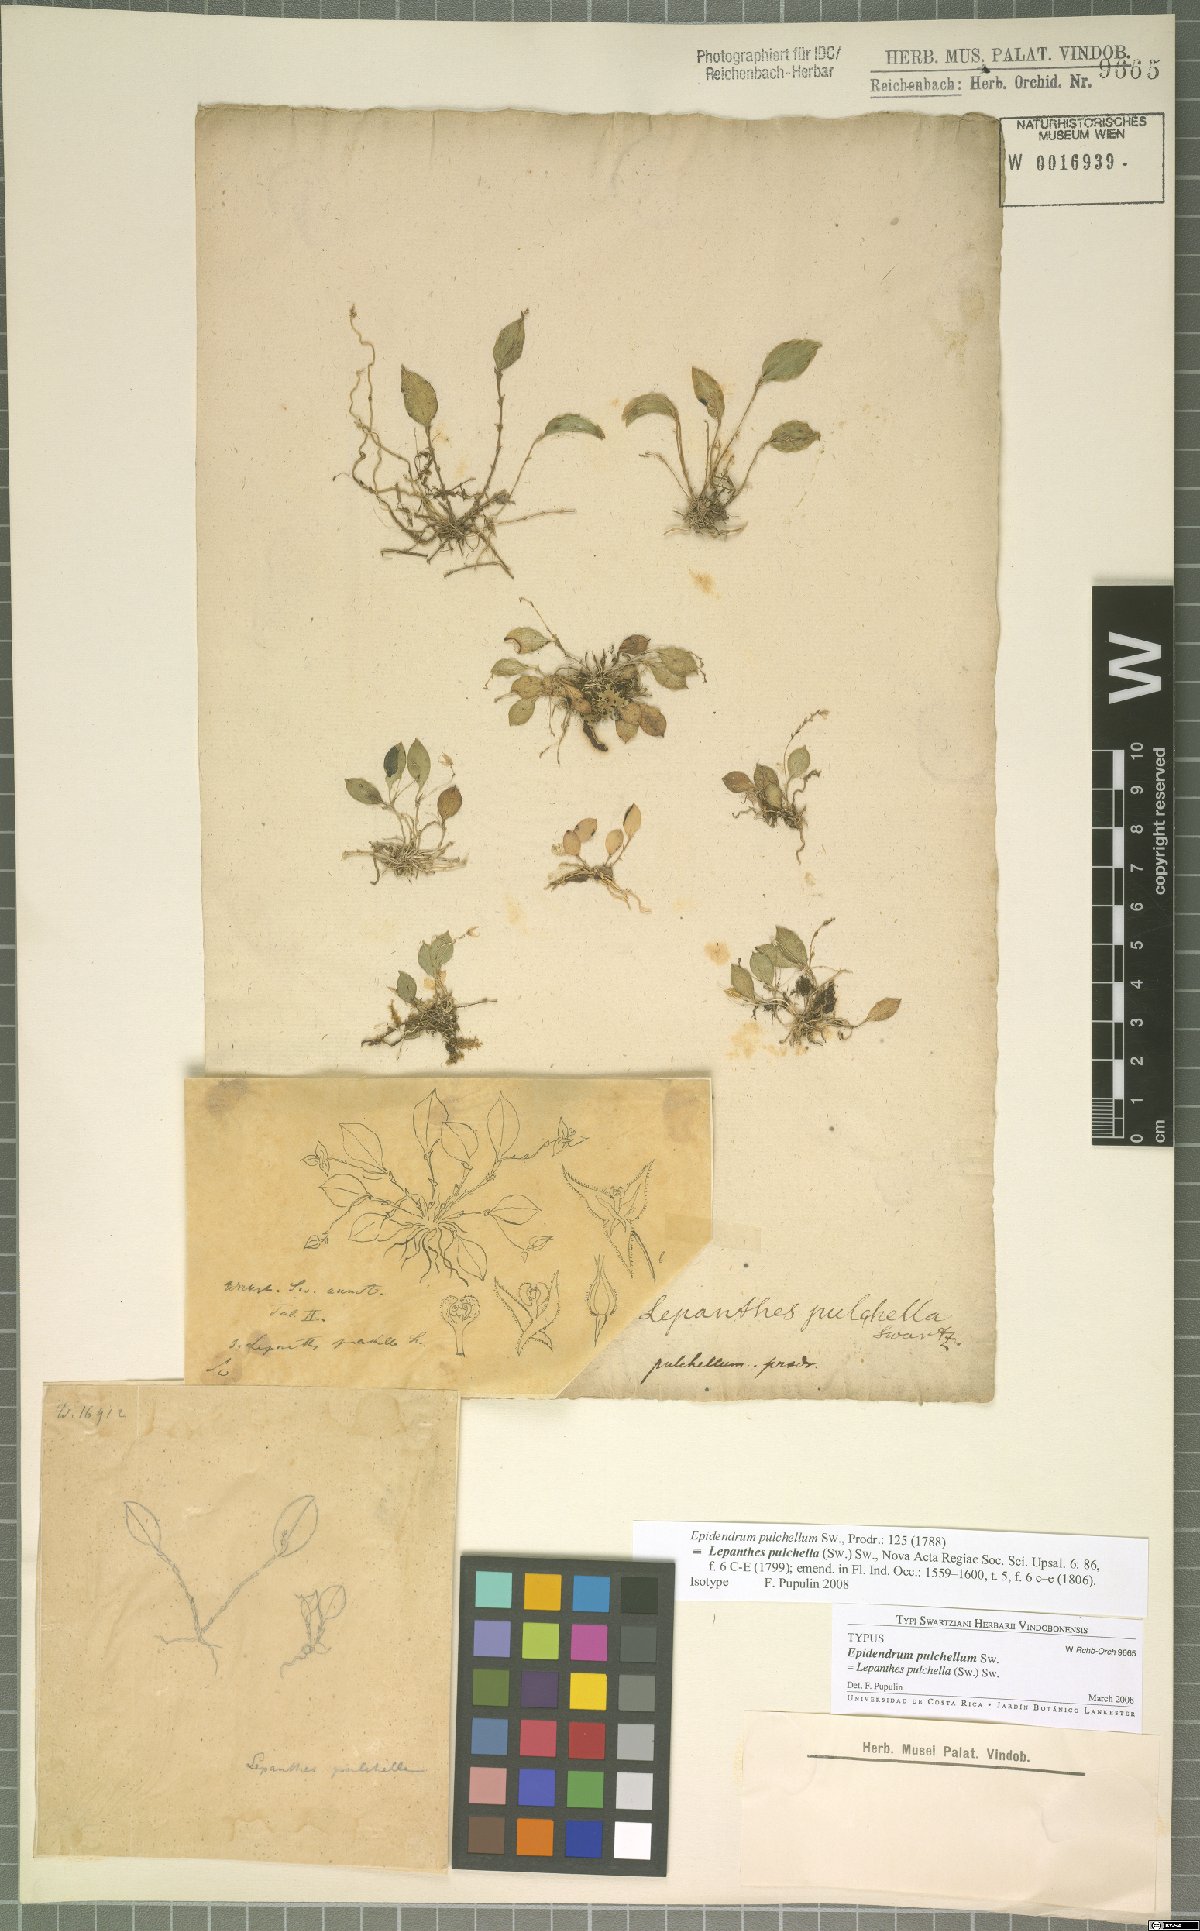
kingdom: Plantae
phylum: Tracheophyta
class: Liliopsida
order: Asparagales
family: Orchidaceae
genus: Lepanthes
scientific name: Lepanthes pulchella
